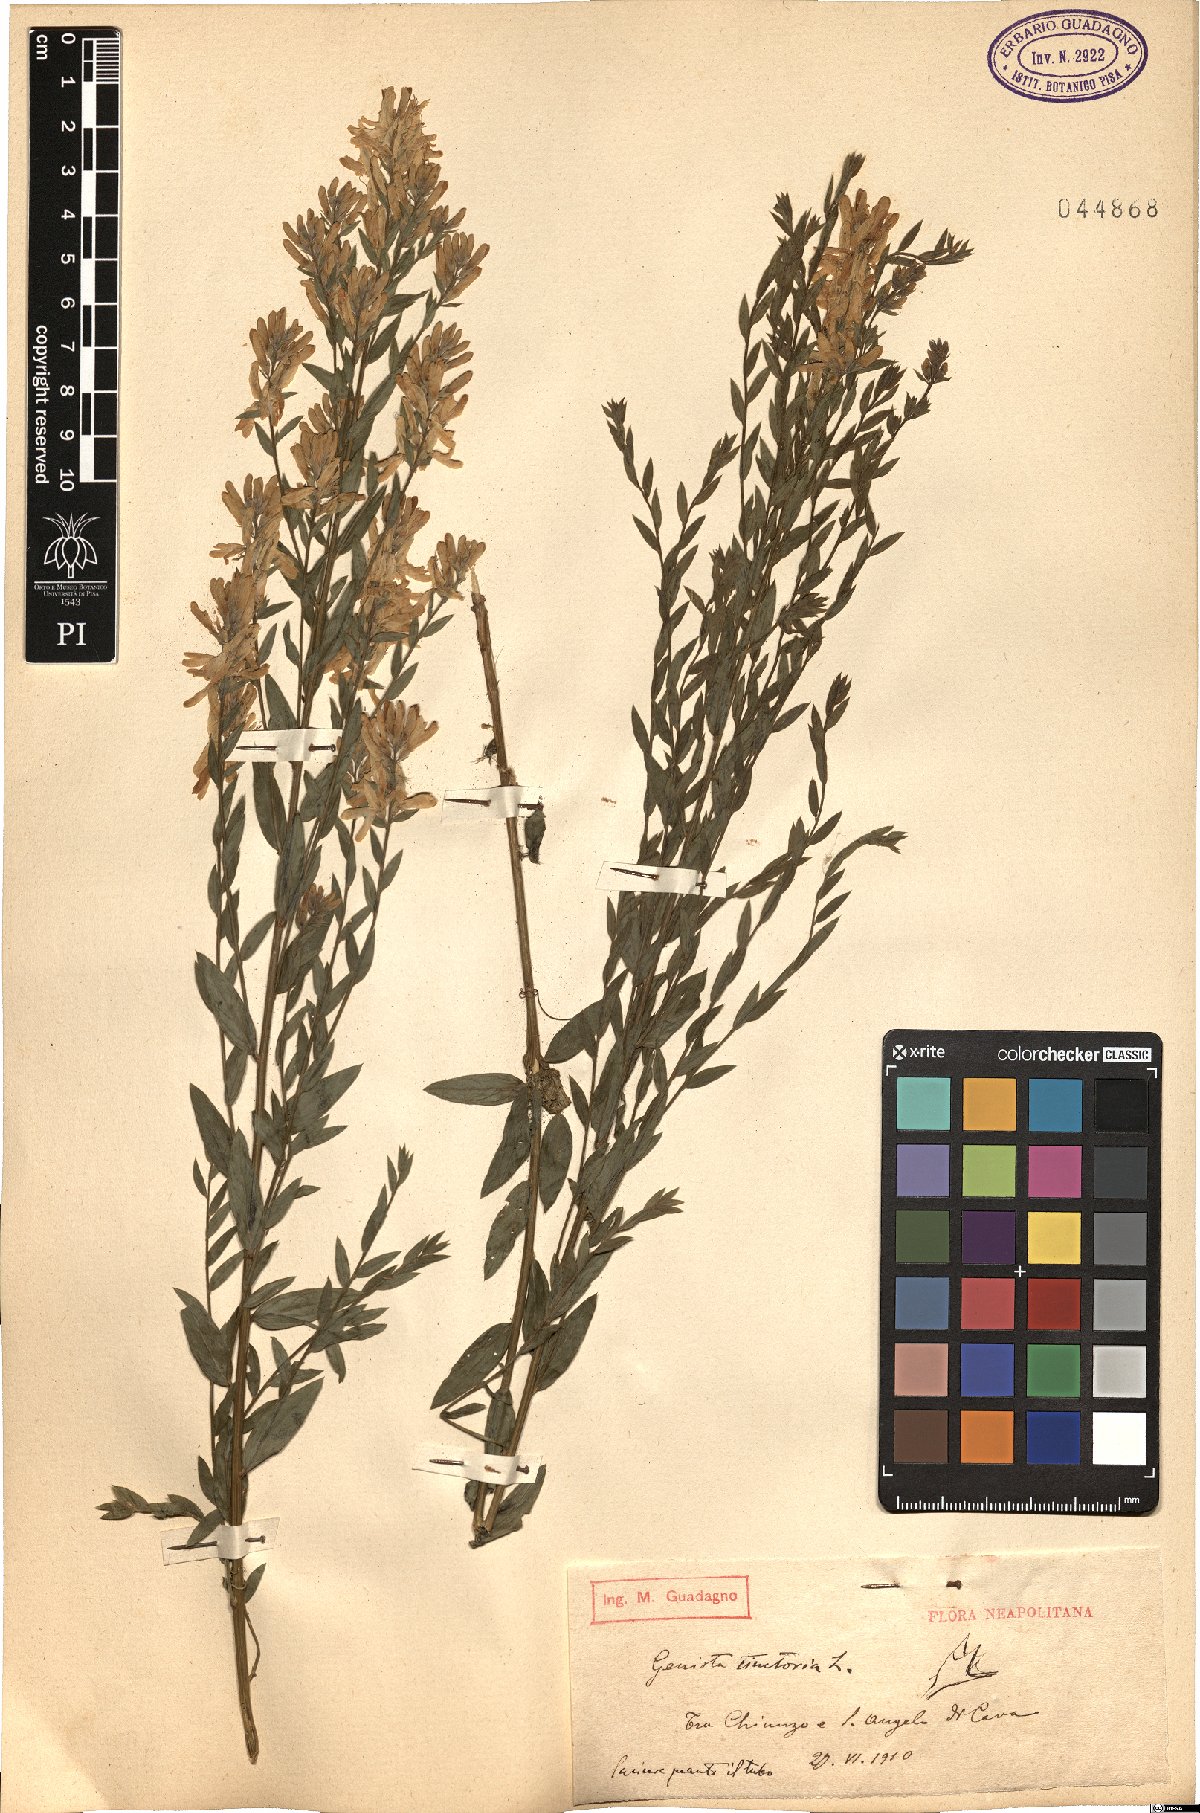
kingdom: Plantae
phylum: Tracheophyta
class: Magnoliopsida
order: Fabales
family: Fabaceae
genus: Genista
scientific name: Genista tinctoria
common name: Dyer's greenweed
